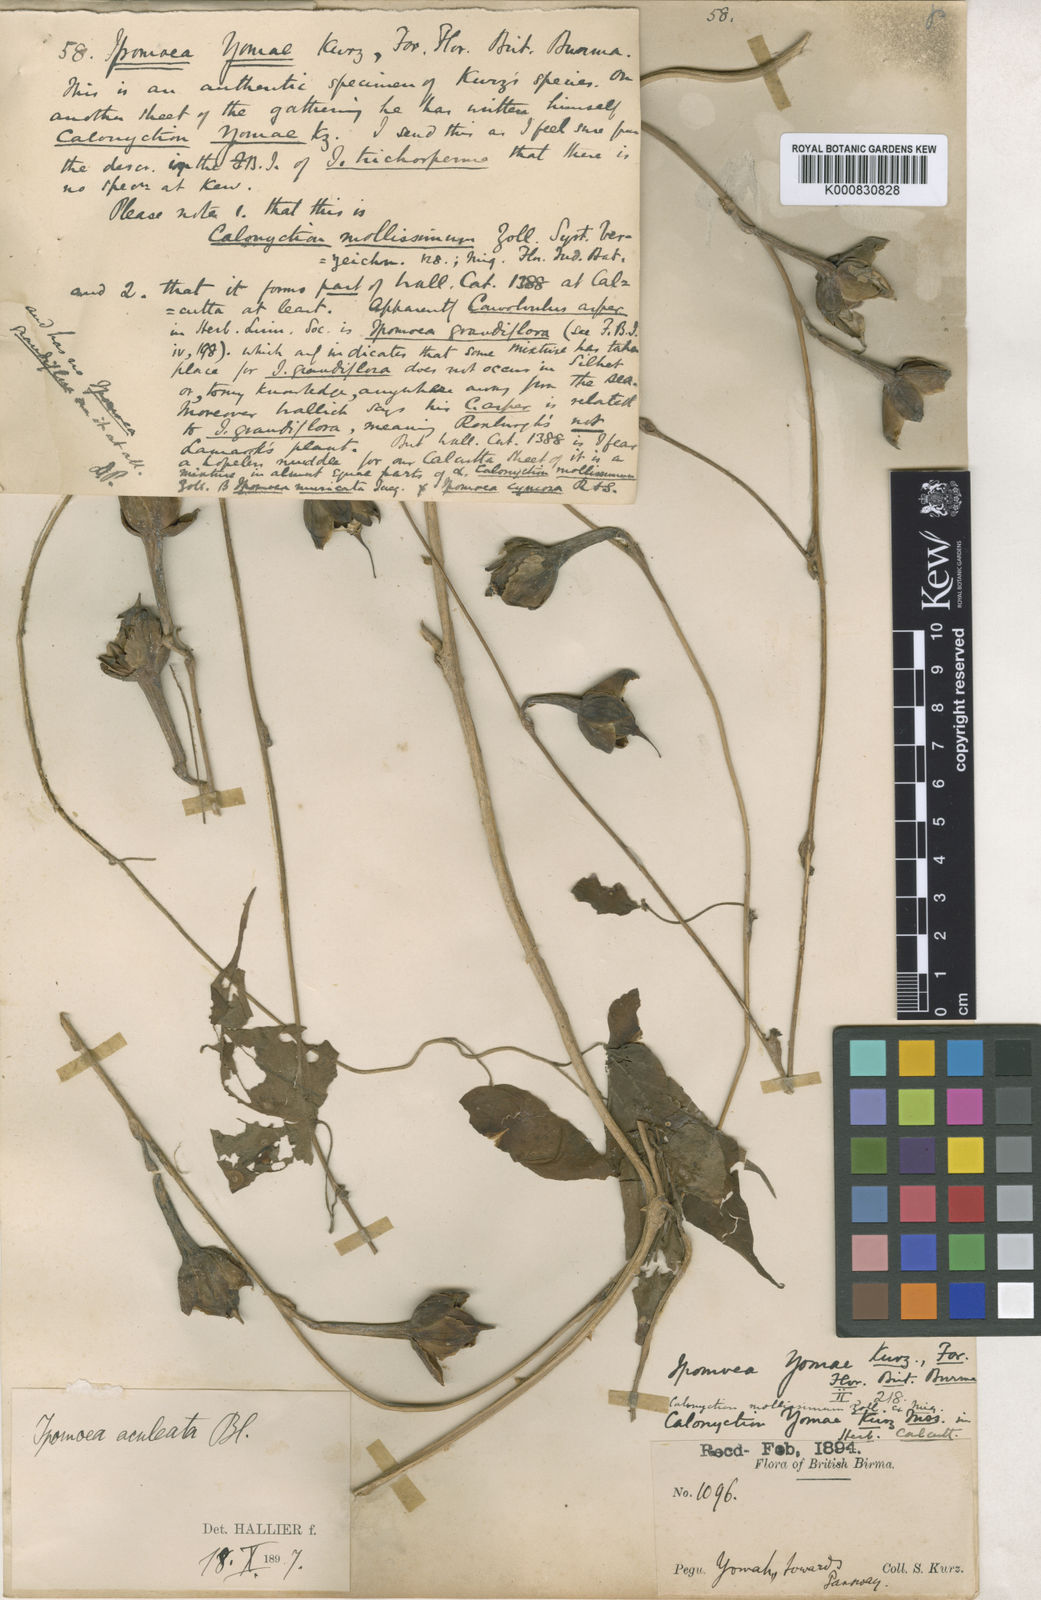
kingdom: Plantae
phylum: Tracheophyta
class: Magnoliopsida
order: Solanales
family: Convolvulaceae
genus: Ipomoea
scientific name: Ipomoea trichosperma
